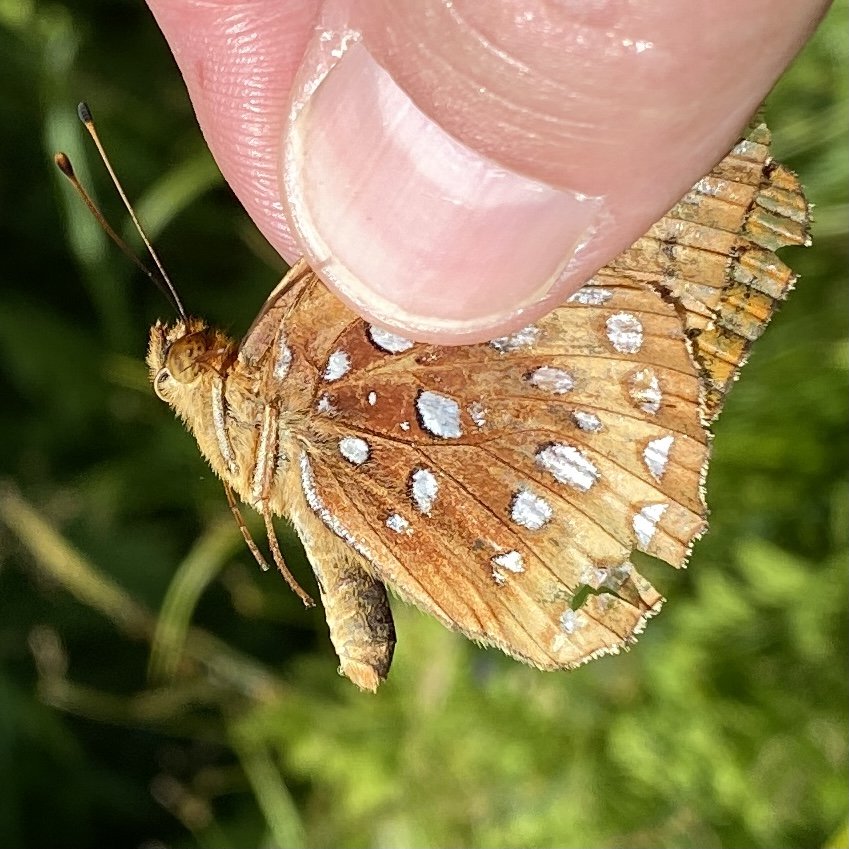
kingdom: Animalia
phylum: Arthropoda
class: Insecta
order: Lepidoptera
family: Nymphalidae
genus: Speyeria
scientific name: Speyeria cybele
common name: Great Spangled Fritillary
